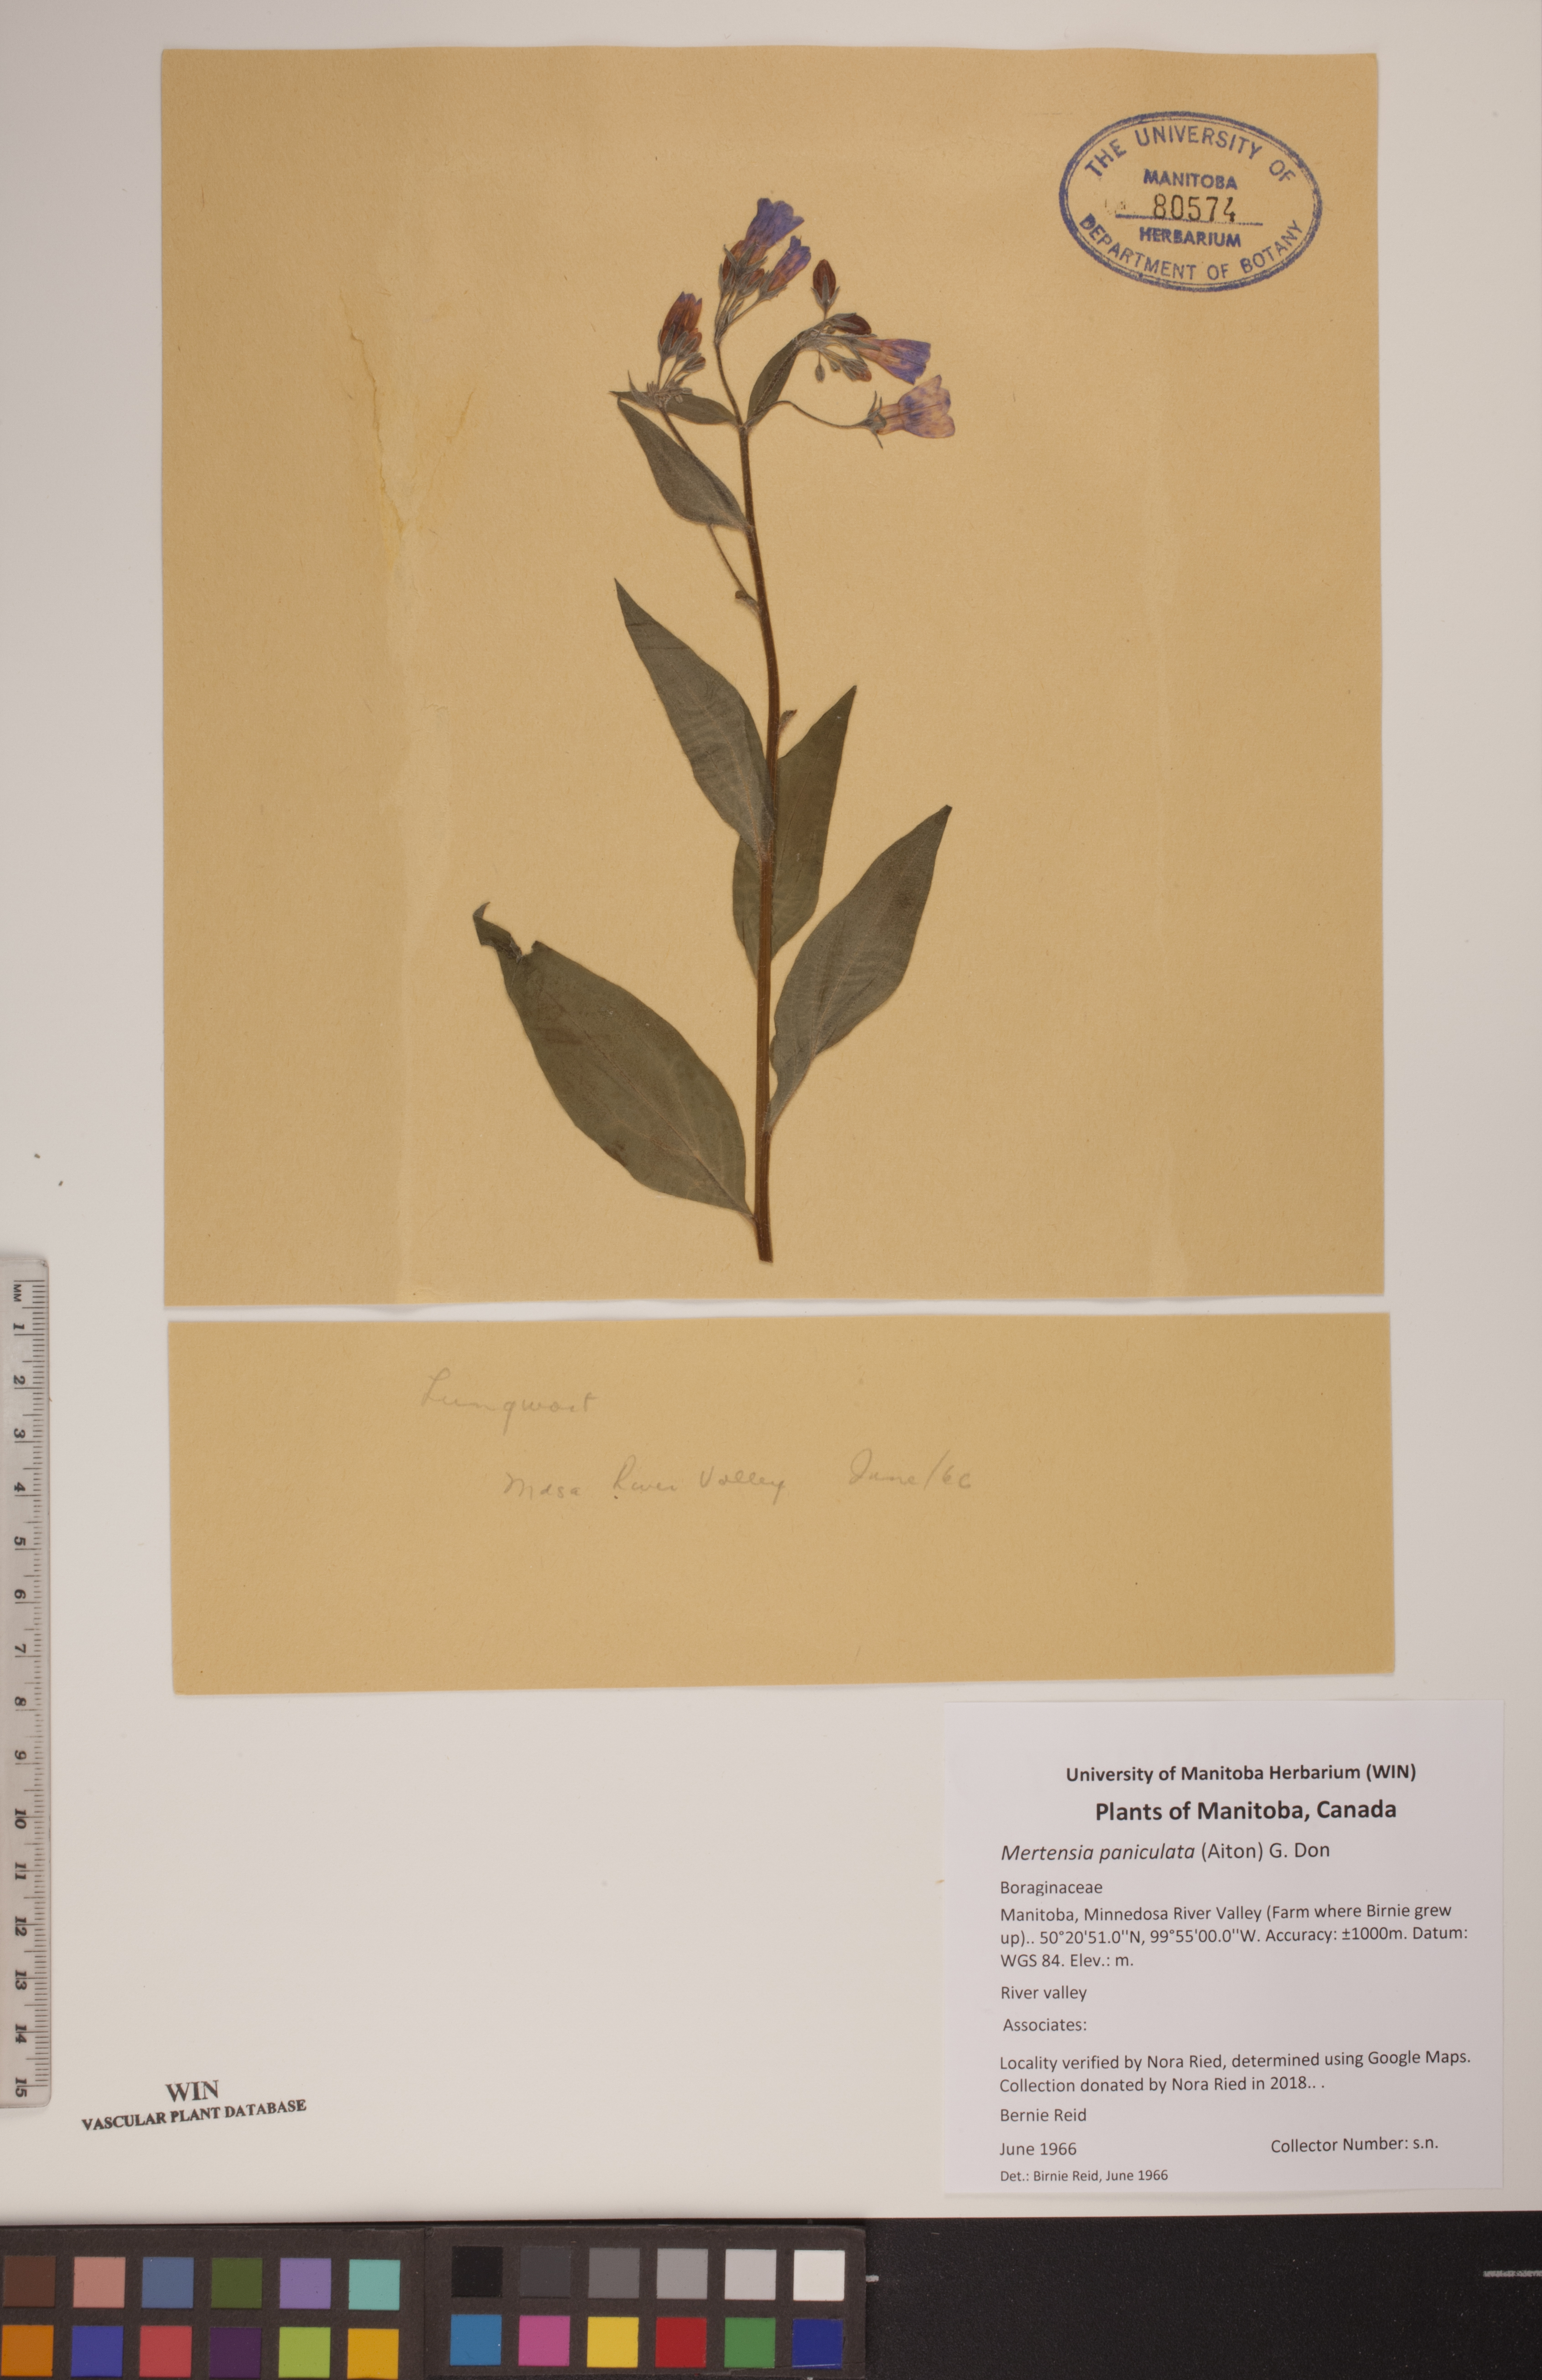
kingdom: Plantae
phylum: Tracheophyta
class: Magnoliopsida
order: Boraginales
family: Boraginaceae
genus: Mertensia
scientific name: Mertensia paniculata
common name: Panicled bluebells
